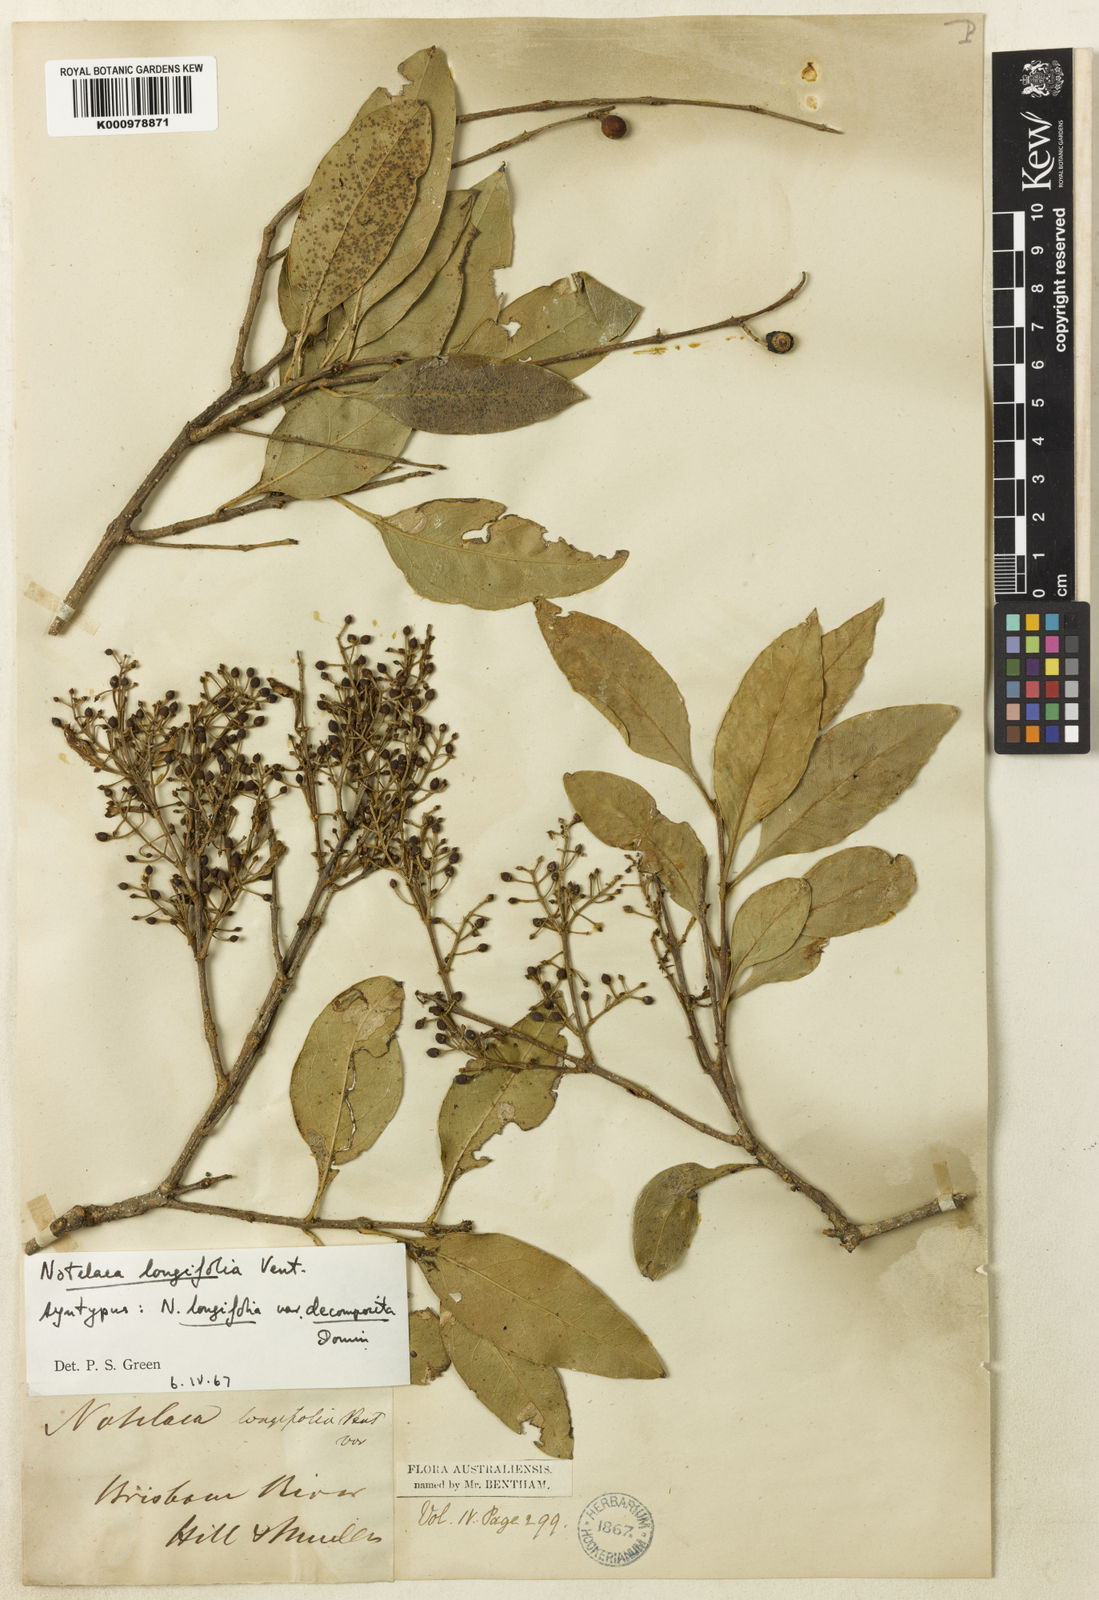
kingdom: Plantae
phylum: Tracheophyta
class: Magnoliopsida
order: Lamiales
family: Oleaceae
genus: Notelaea
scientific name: Notelaea longifolia
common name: Large mock olive
